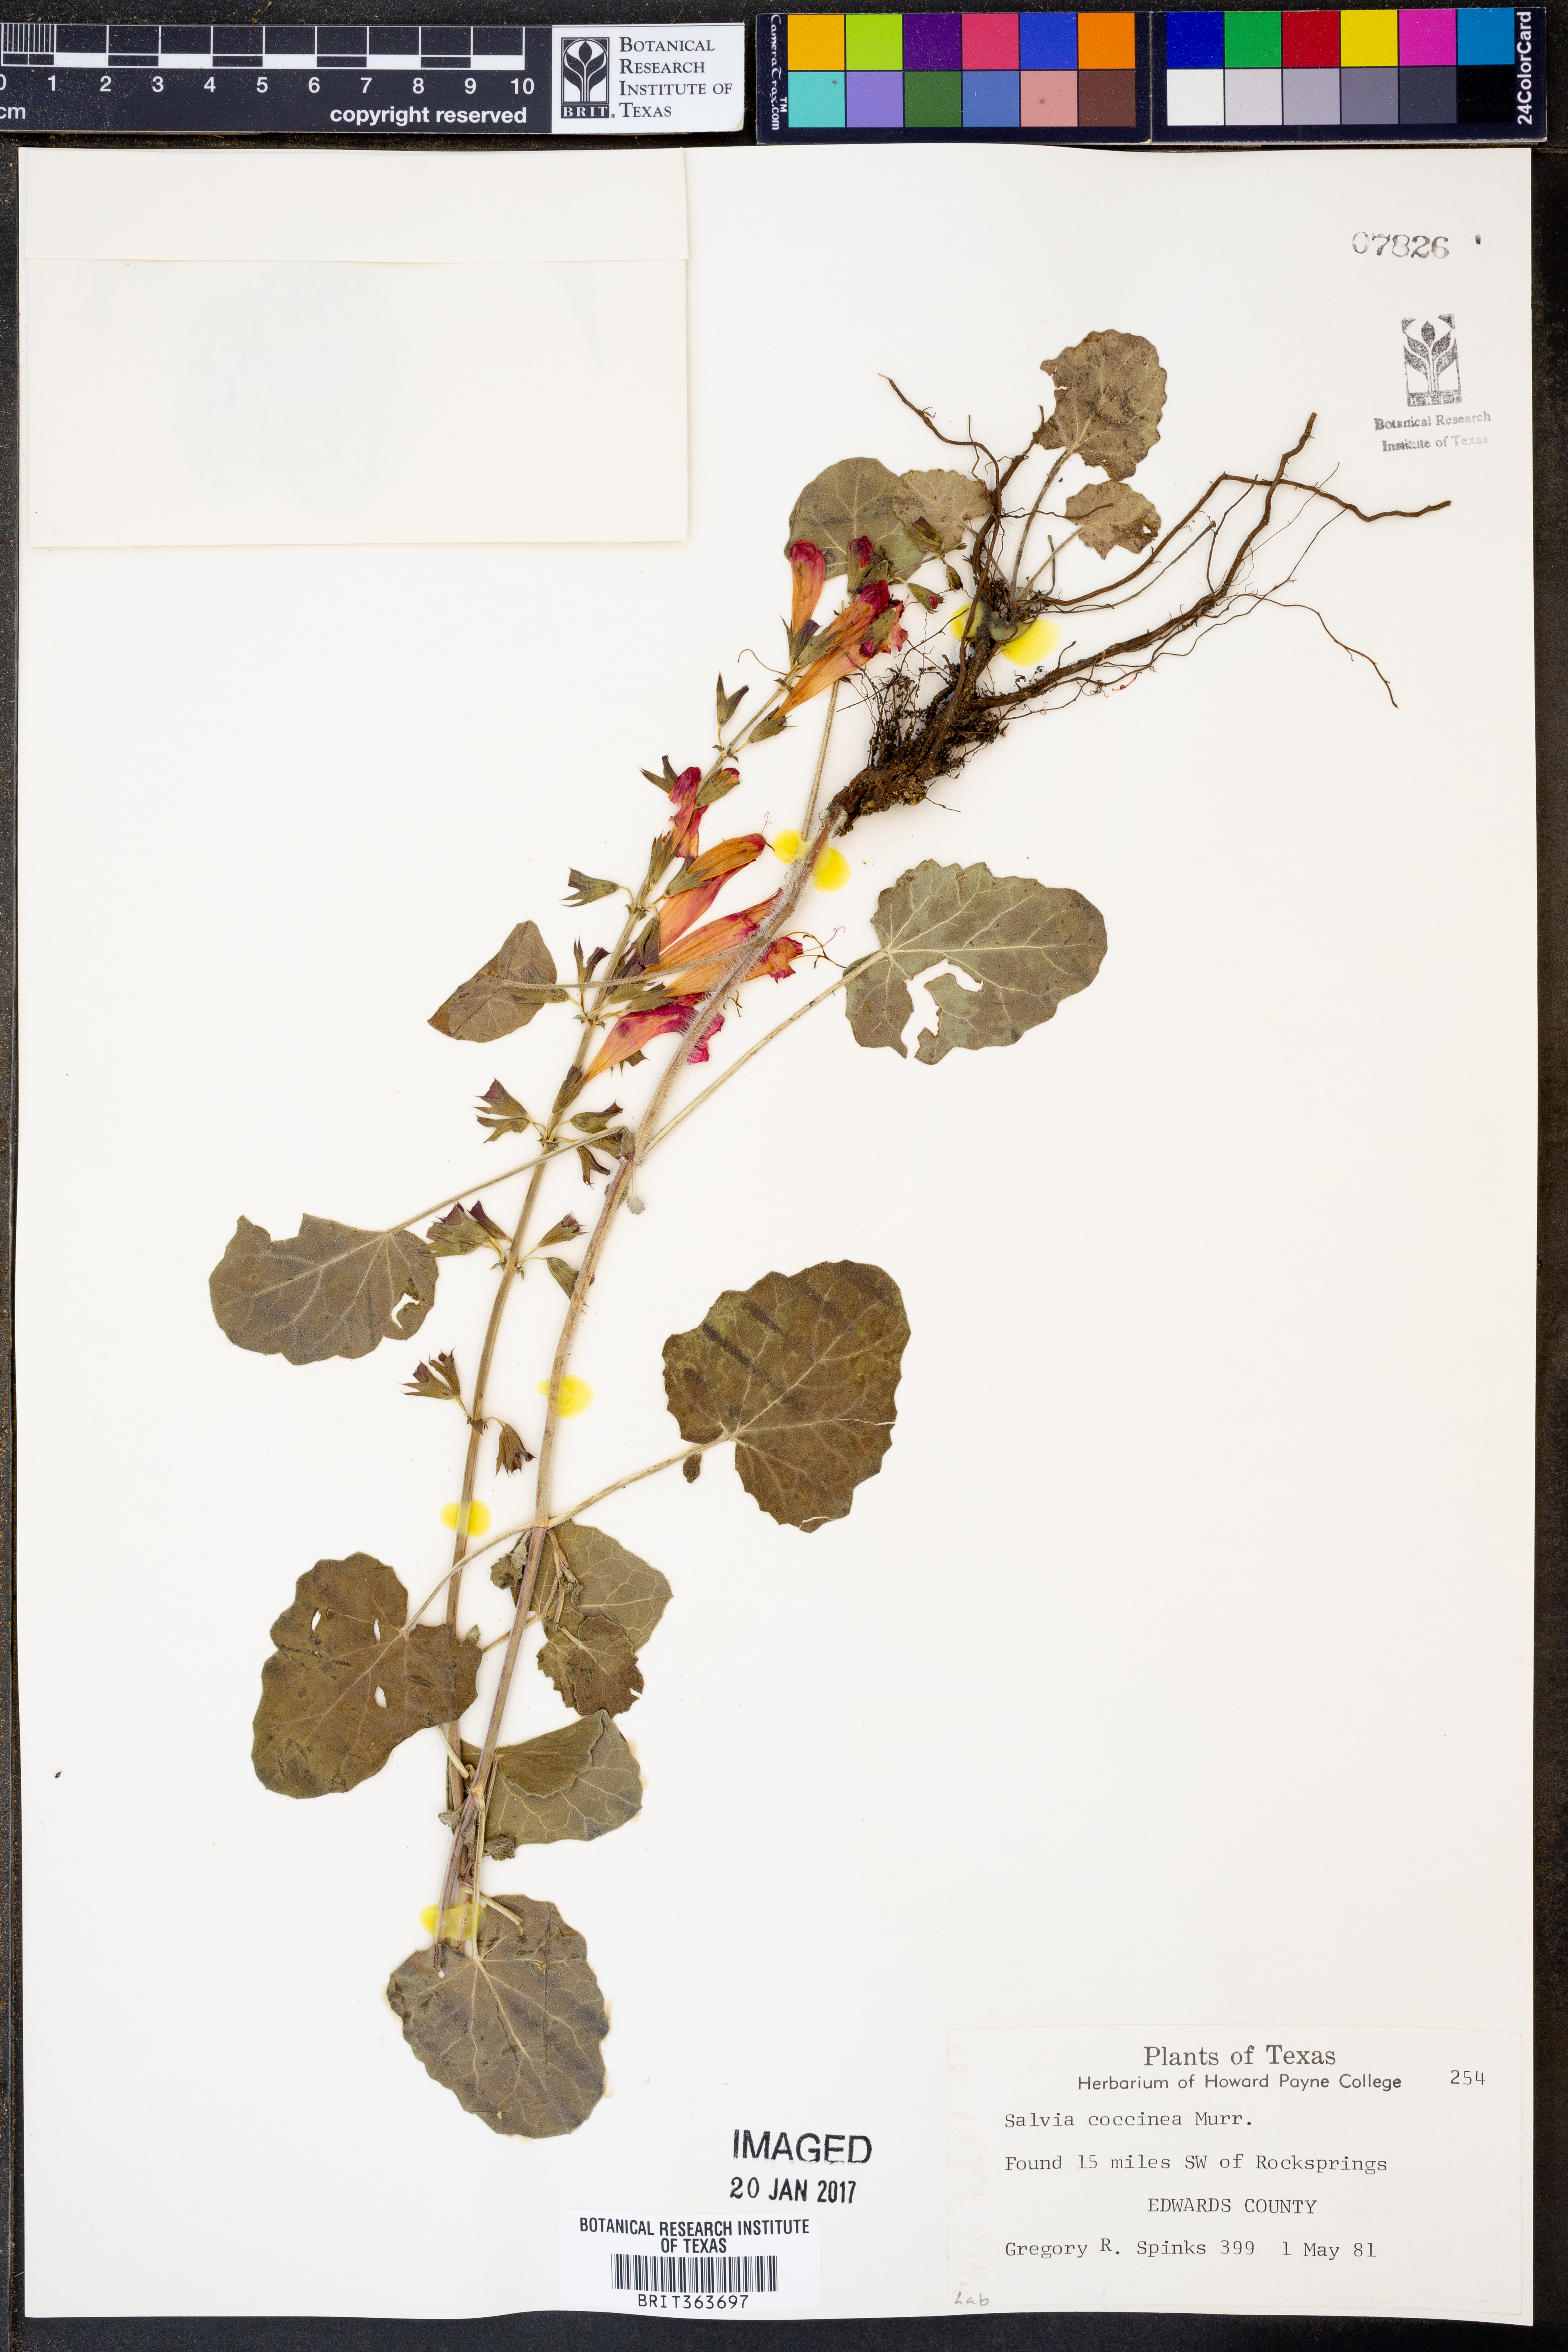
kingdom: Plantae
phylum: Tracheophyta
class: Magnoliopsida
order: Lamiales
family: Lamiaceae
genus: Salvia
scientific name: Salvia coccinea
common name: Blood sage
